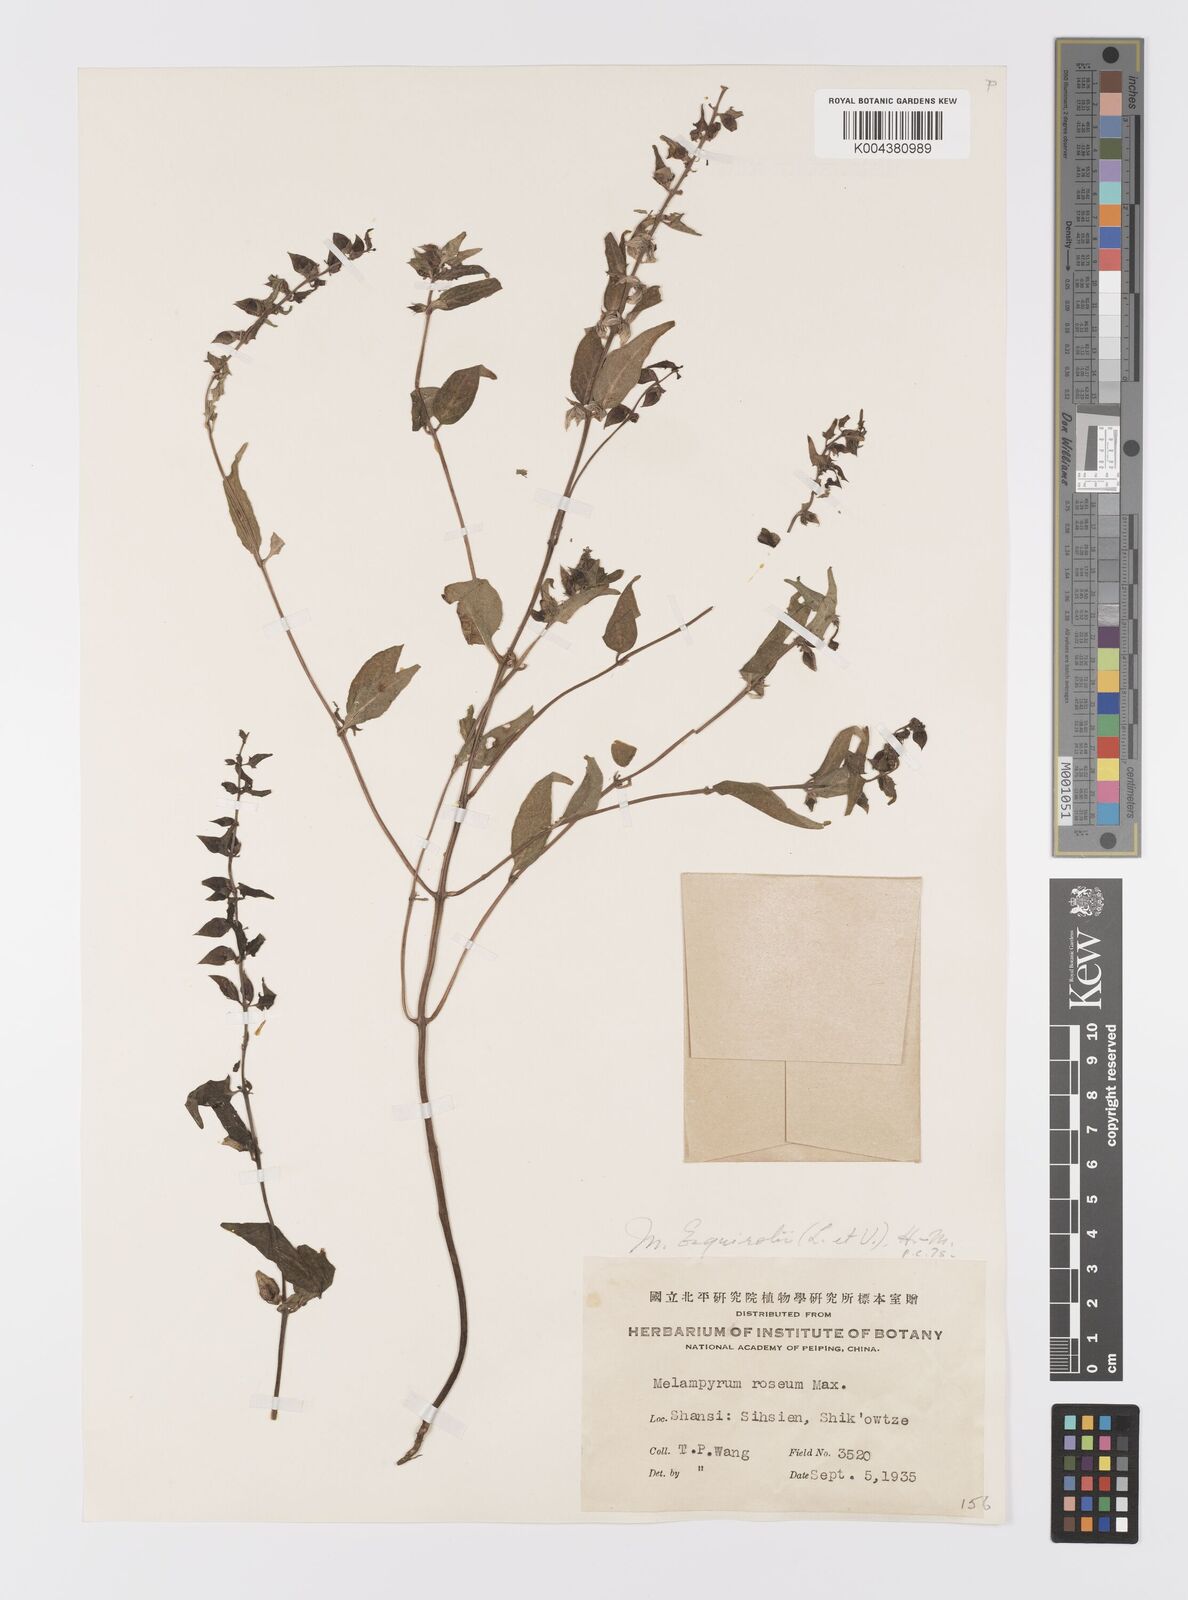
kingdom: Plantae
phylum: Tracheophyta
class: Magnoliopsida
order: Lamiales
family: Orobanchaceae
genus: Melampyrum
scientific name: Melampyrum roseum
